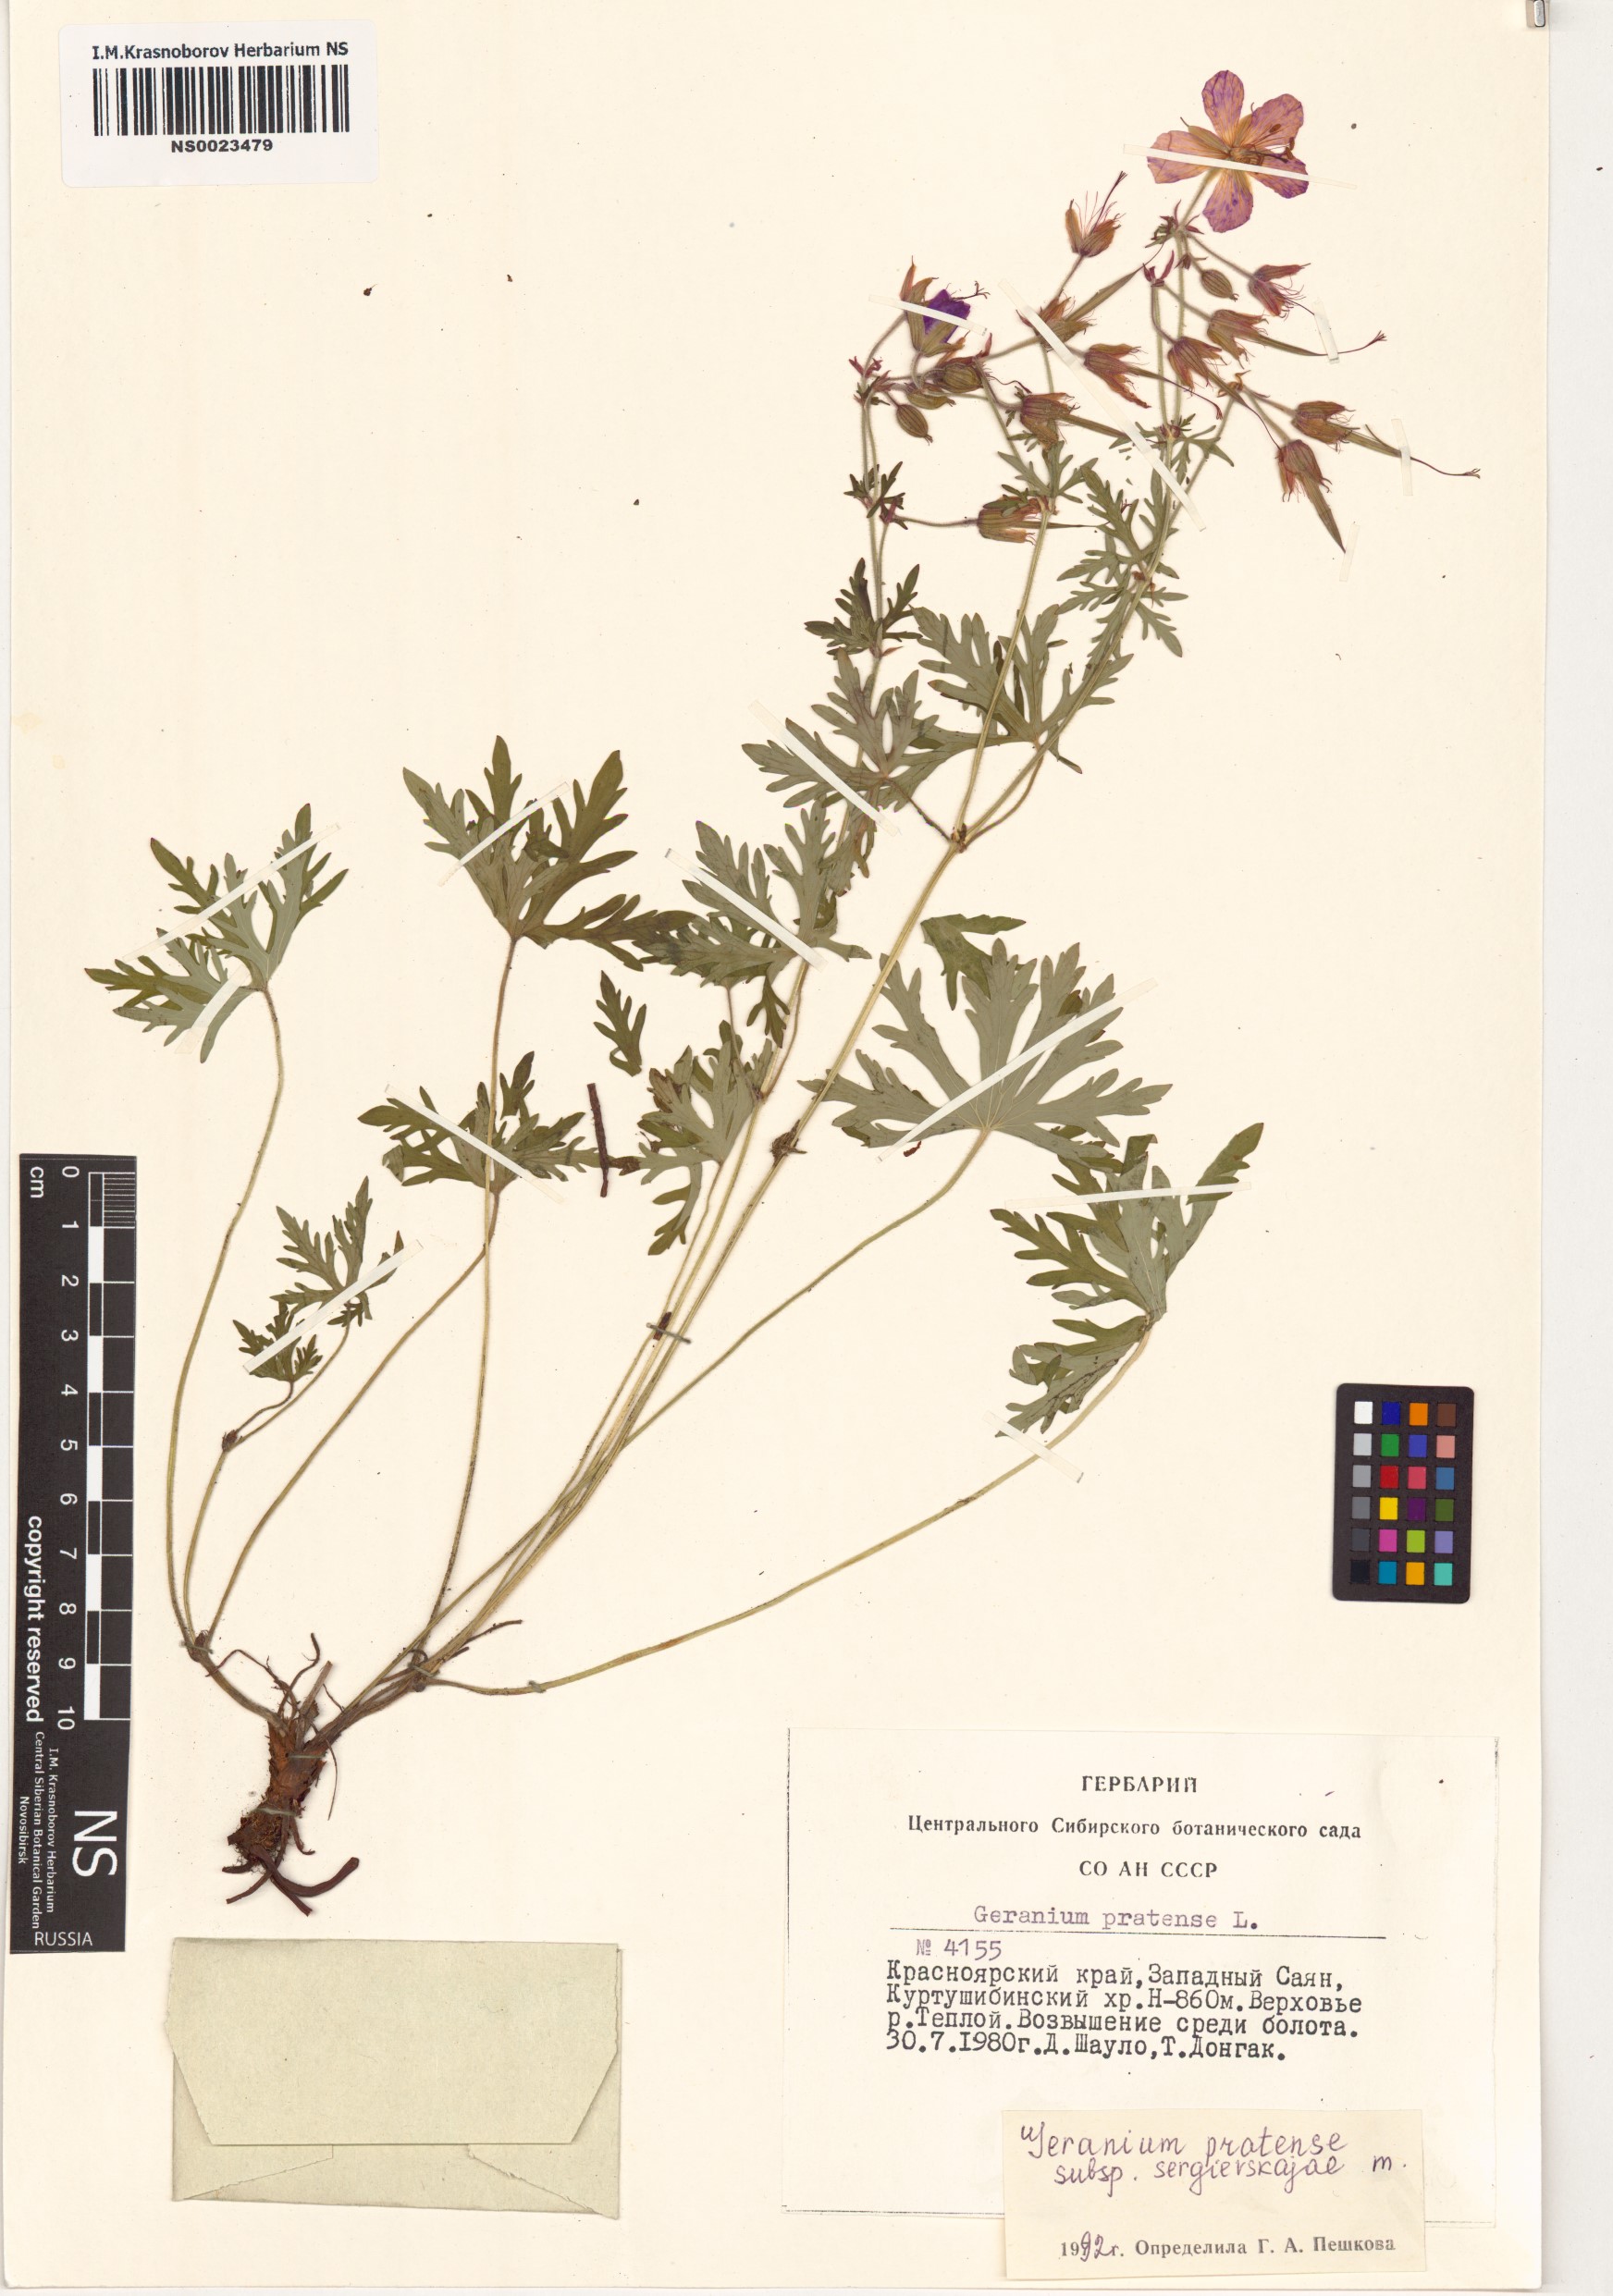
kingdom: Plantae
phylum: Tracheophyta
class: Magnoliopsida
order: Geraniales
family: Geraniaceae
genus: Geranium
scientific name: Geranium pratense
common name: Meadow crane's-bill
